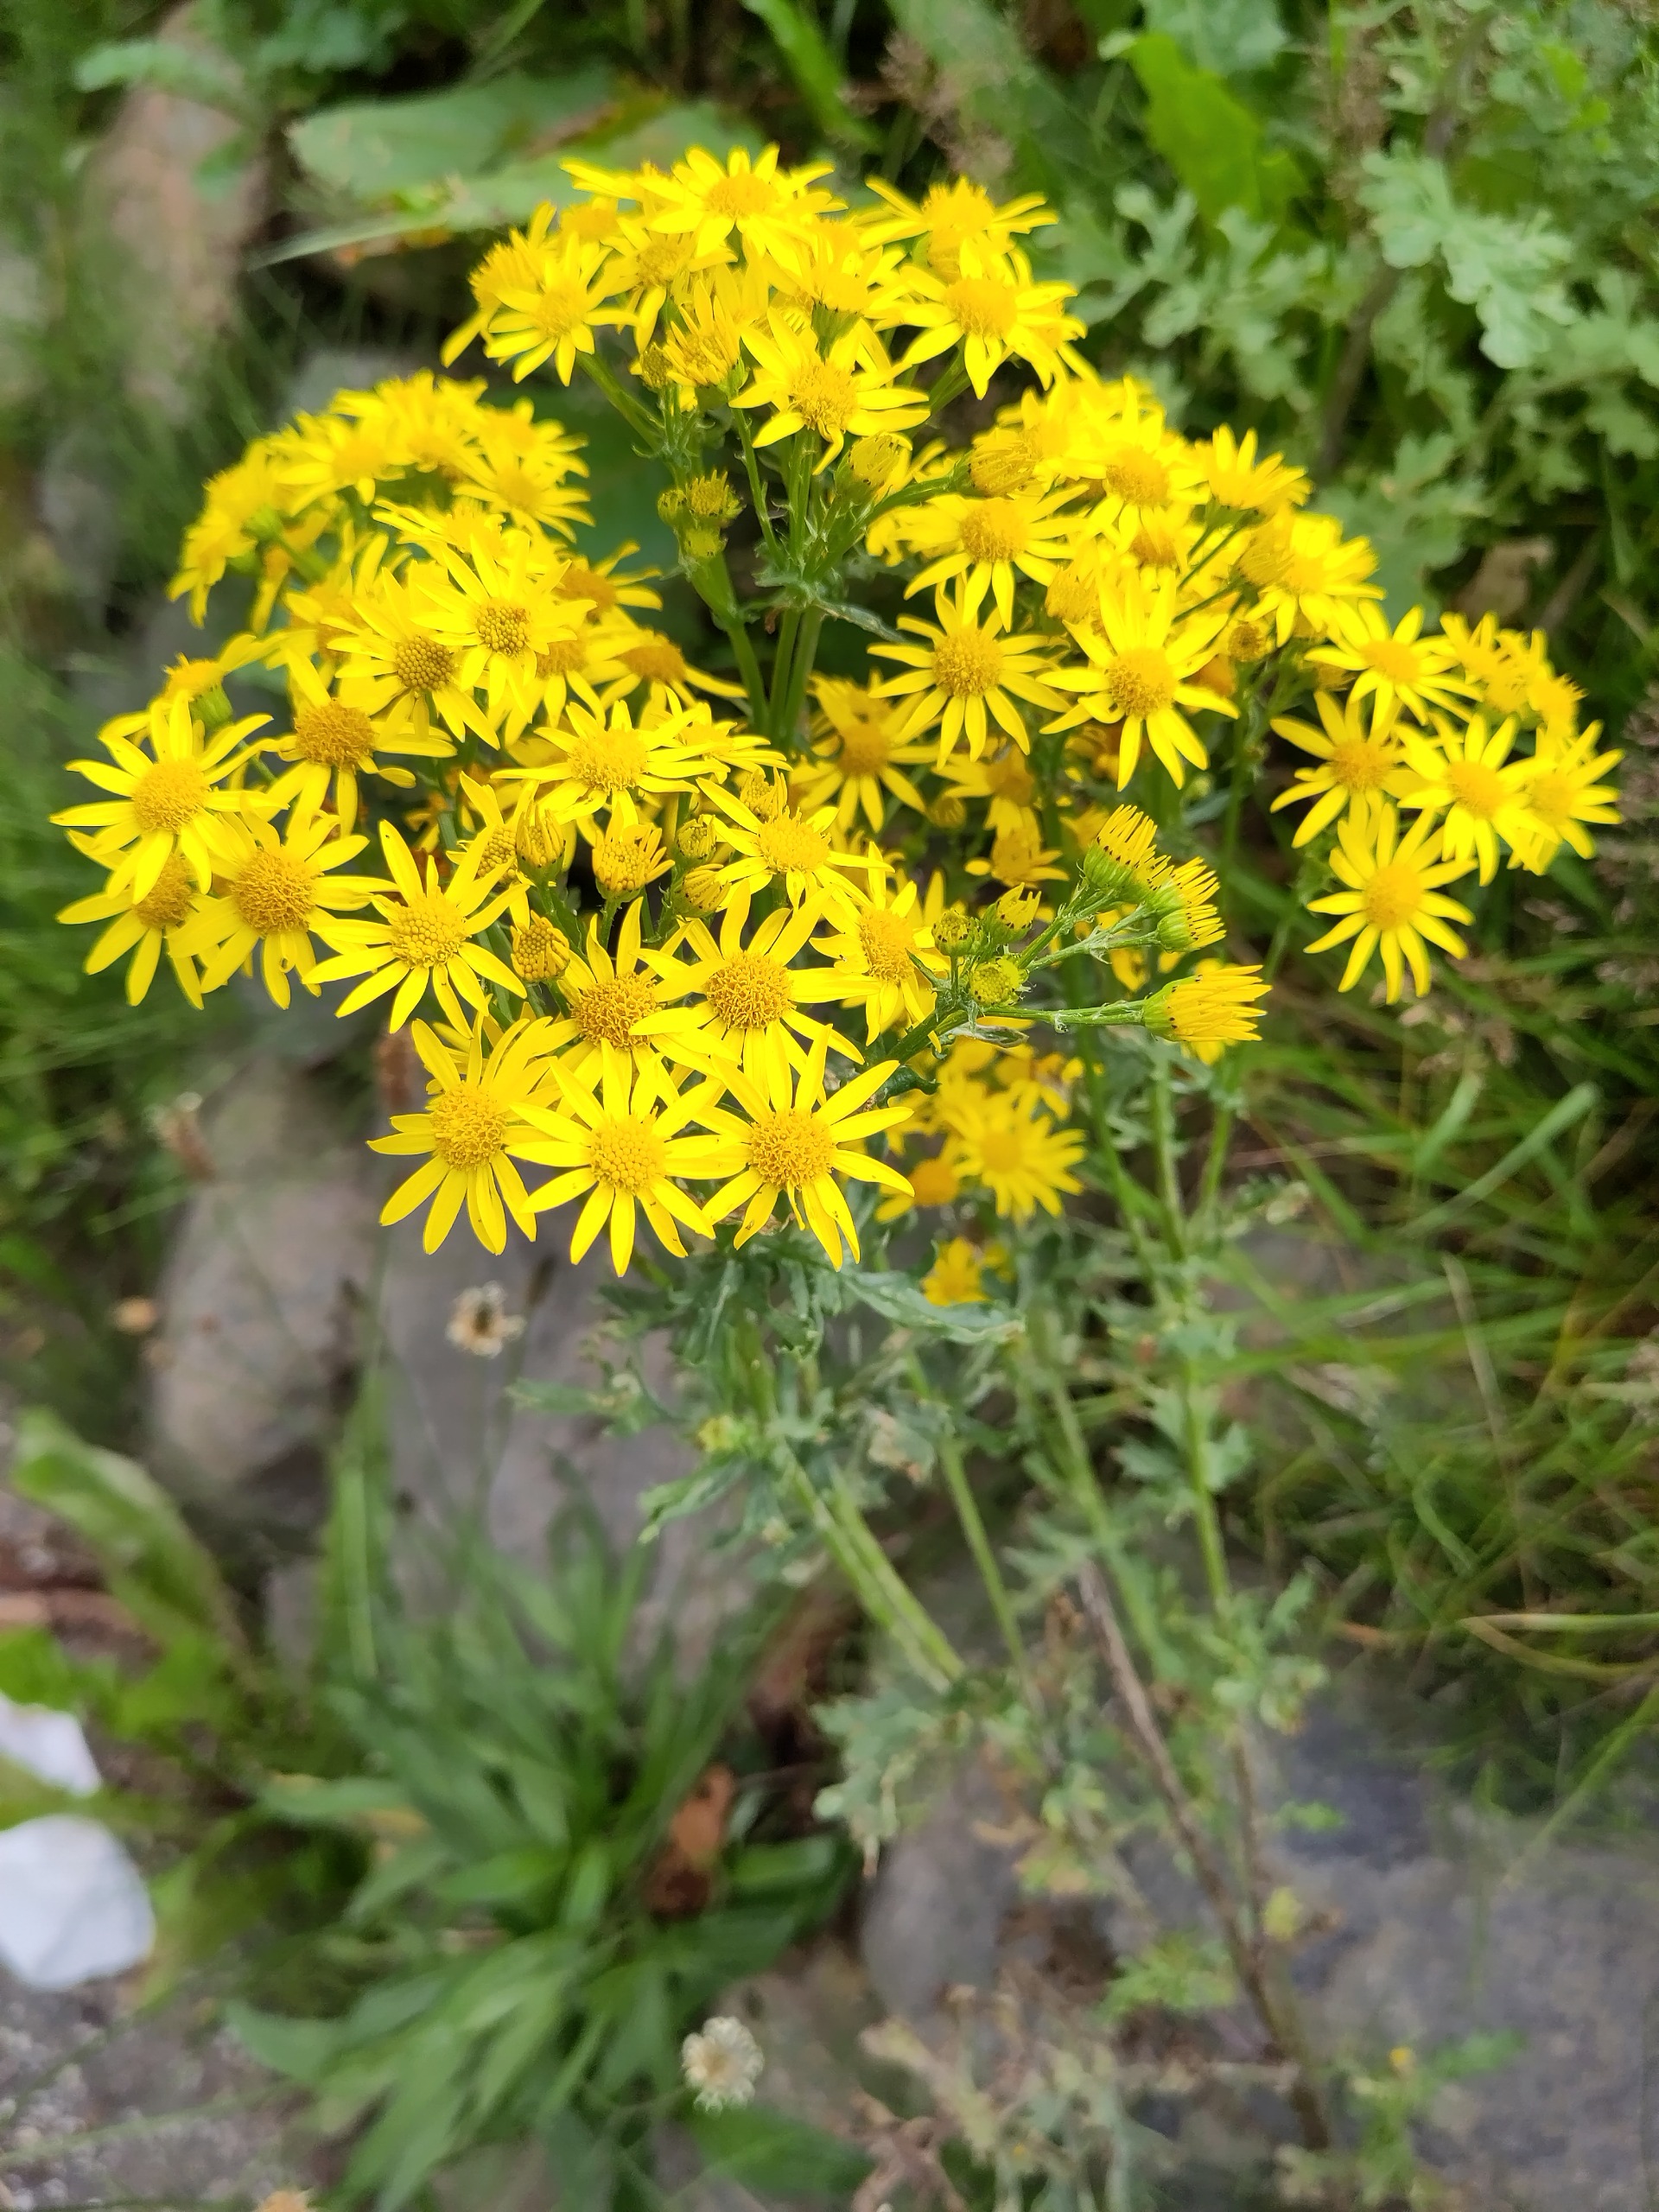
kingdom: Plantae
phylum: Tracheophyta
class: Magnoliopsida
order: Asterales
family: Asteraceae
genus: Jacobaea
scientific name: Jacobaea vulgaris
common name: Eng-brandbæger
